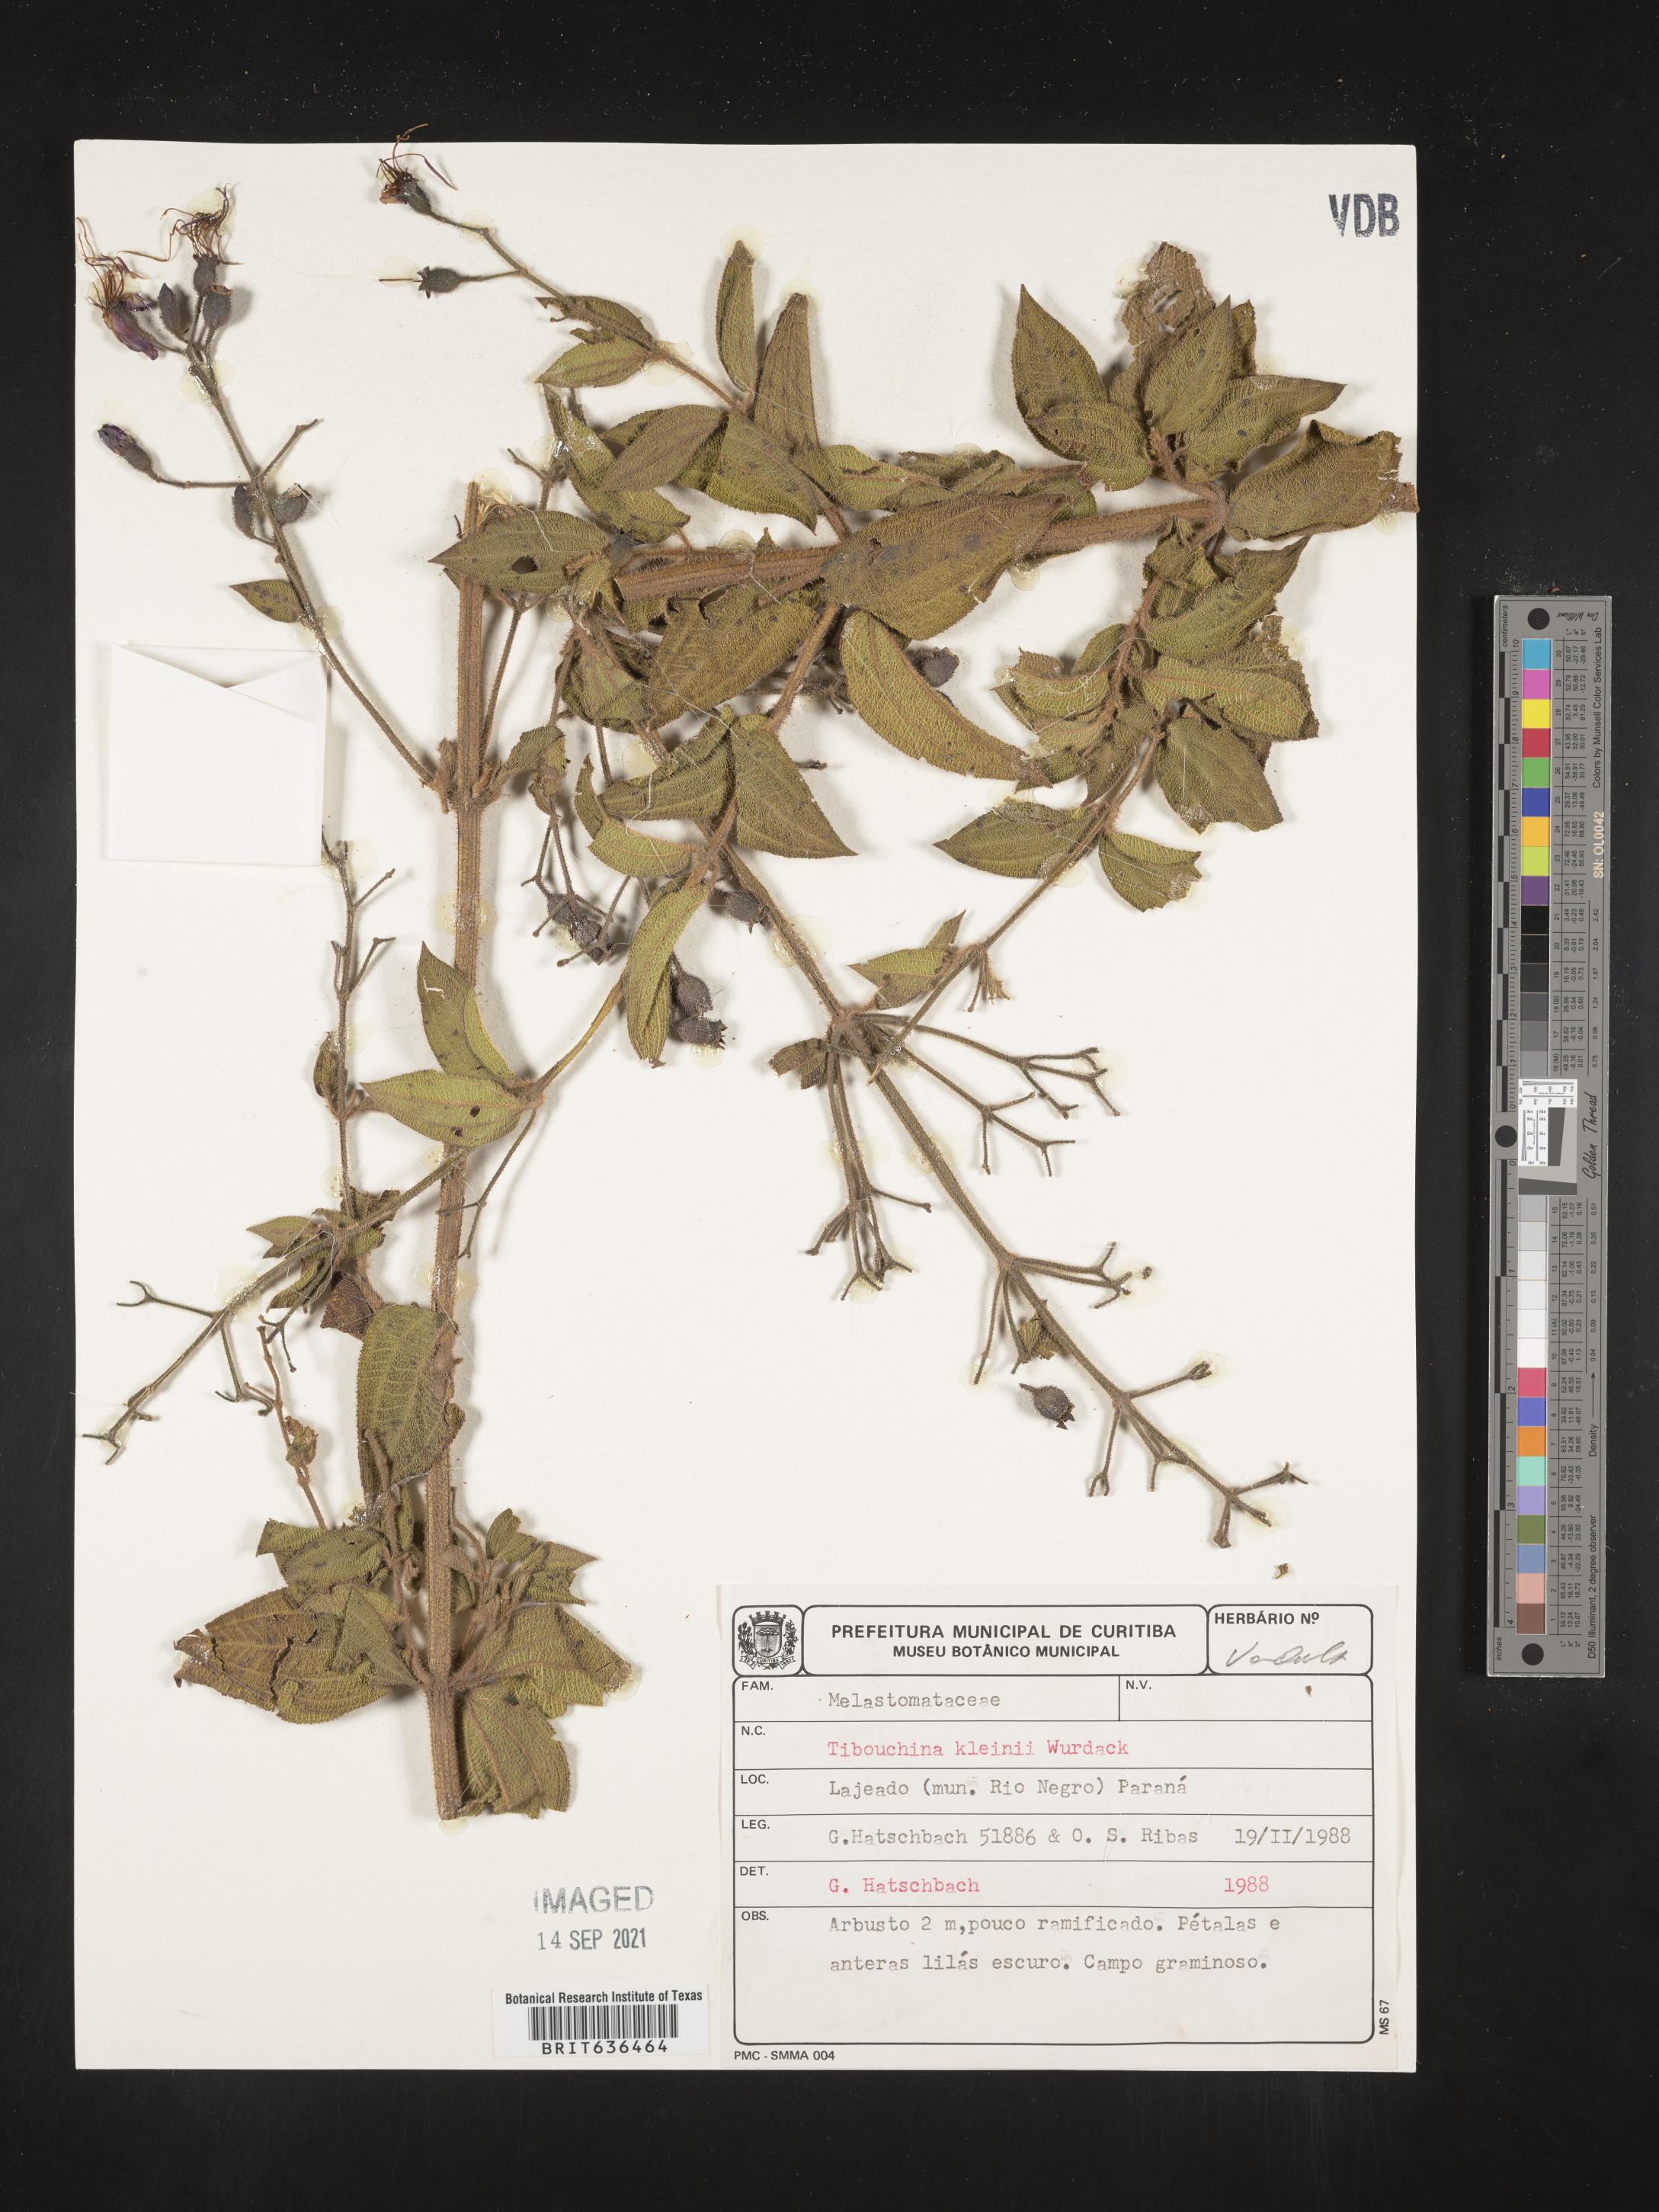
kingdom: Plantae
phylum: Tracheophyta
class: Magnoliopsida
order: Myrtales
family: Melastomataceae
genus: Tibouchina
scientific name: Tibouchina
